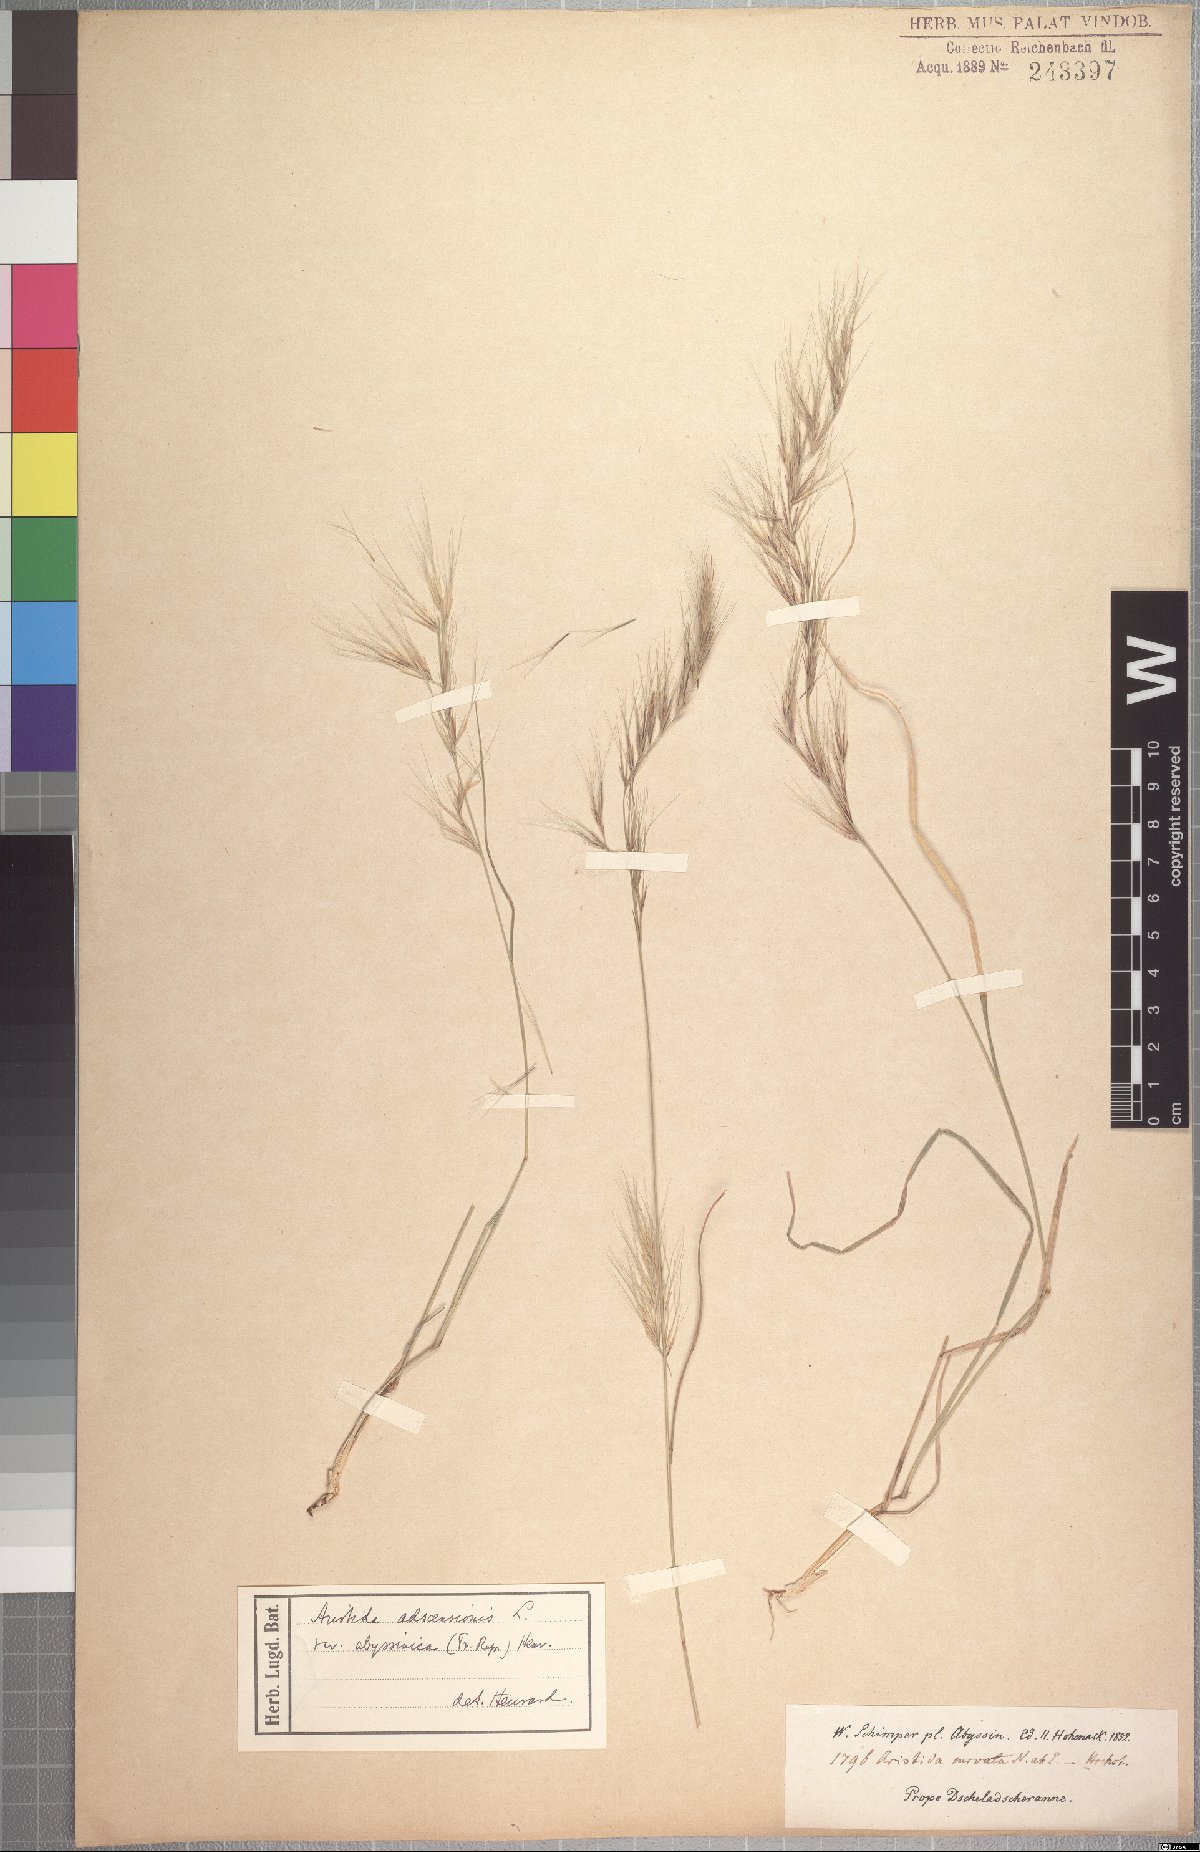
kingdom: Plantae
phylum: Tracheophyta
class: Liliopsida
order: Poales
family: Poaceae
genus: Aristida
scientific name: Aristida adscensionis
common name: Sixweeks threeawn
